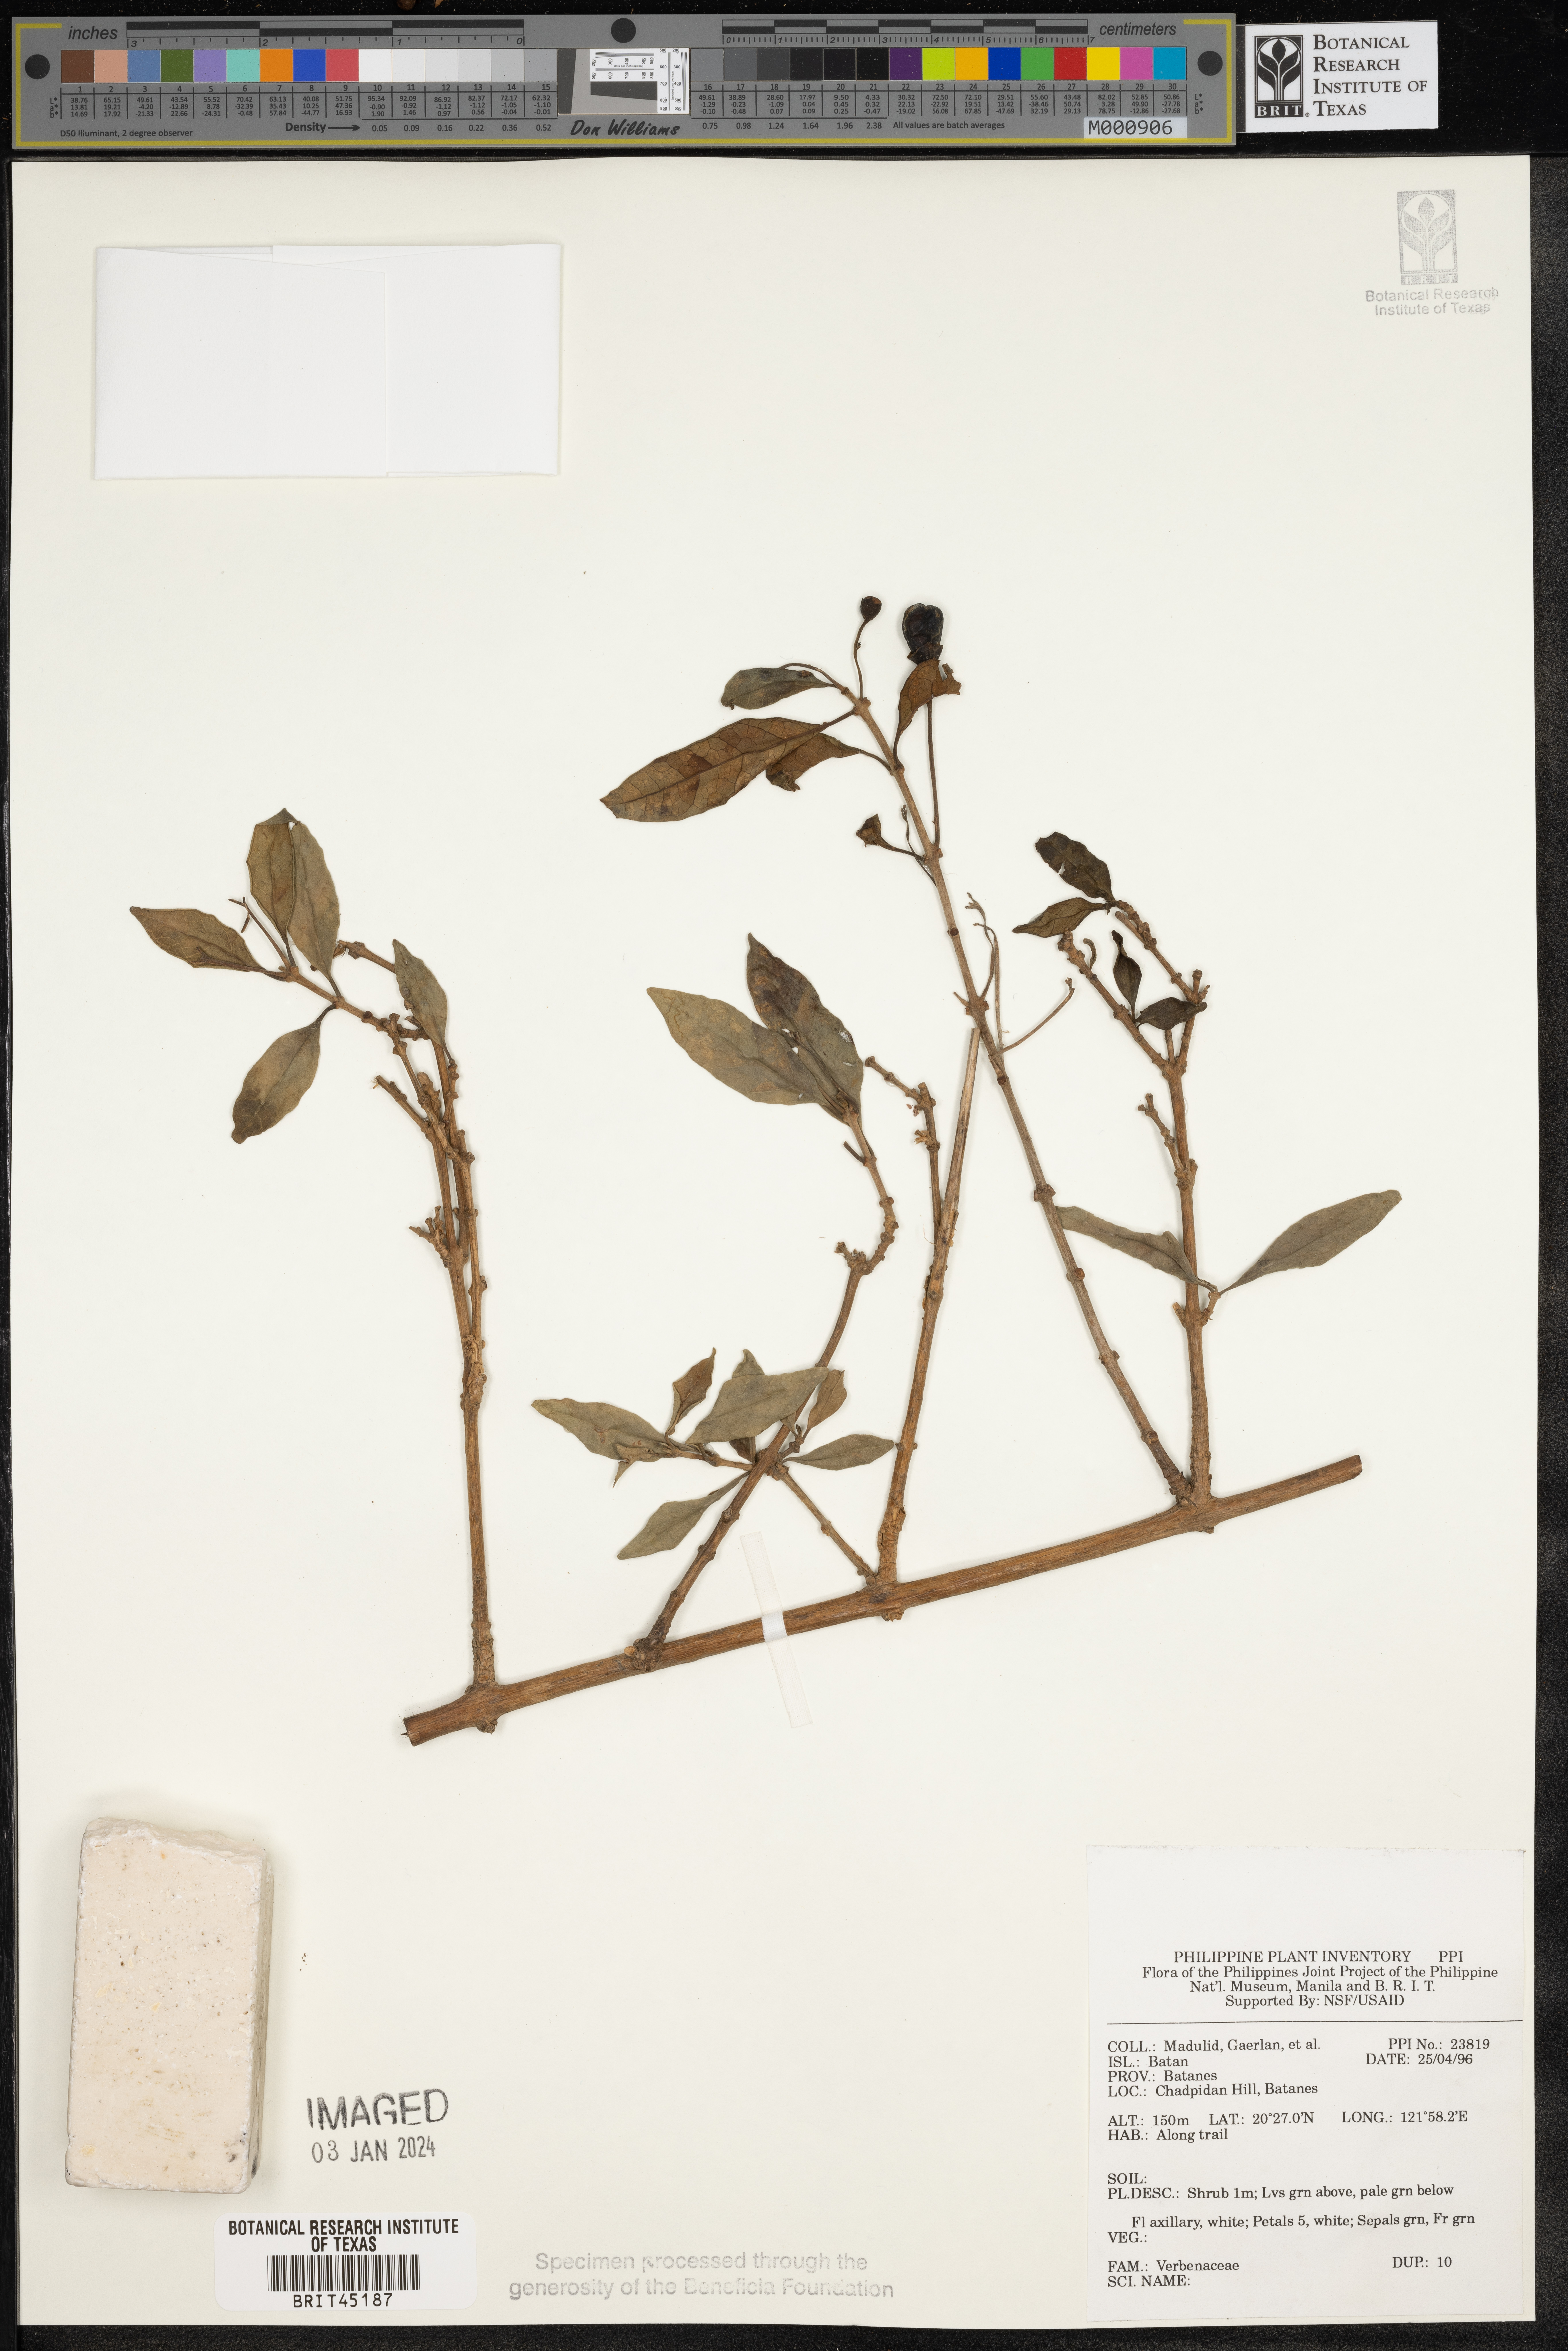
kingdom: Plantae
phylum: Tracheophyta
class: Magnoliopsida
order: Lamiales
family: Verbenaceae
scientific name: Verbenaceae
